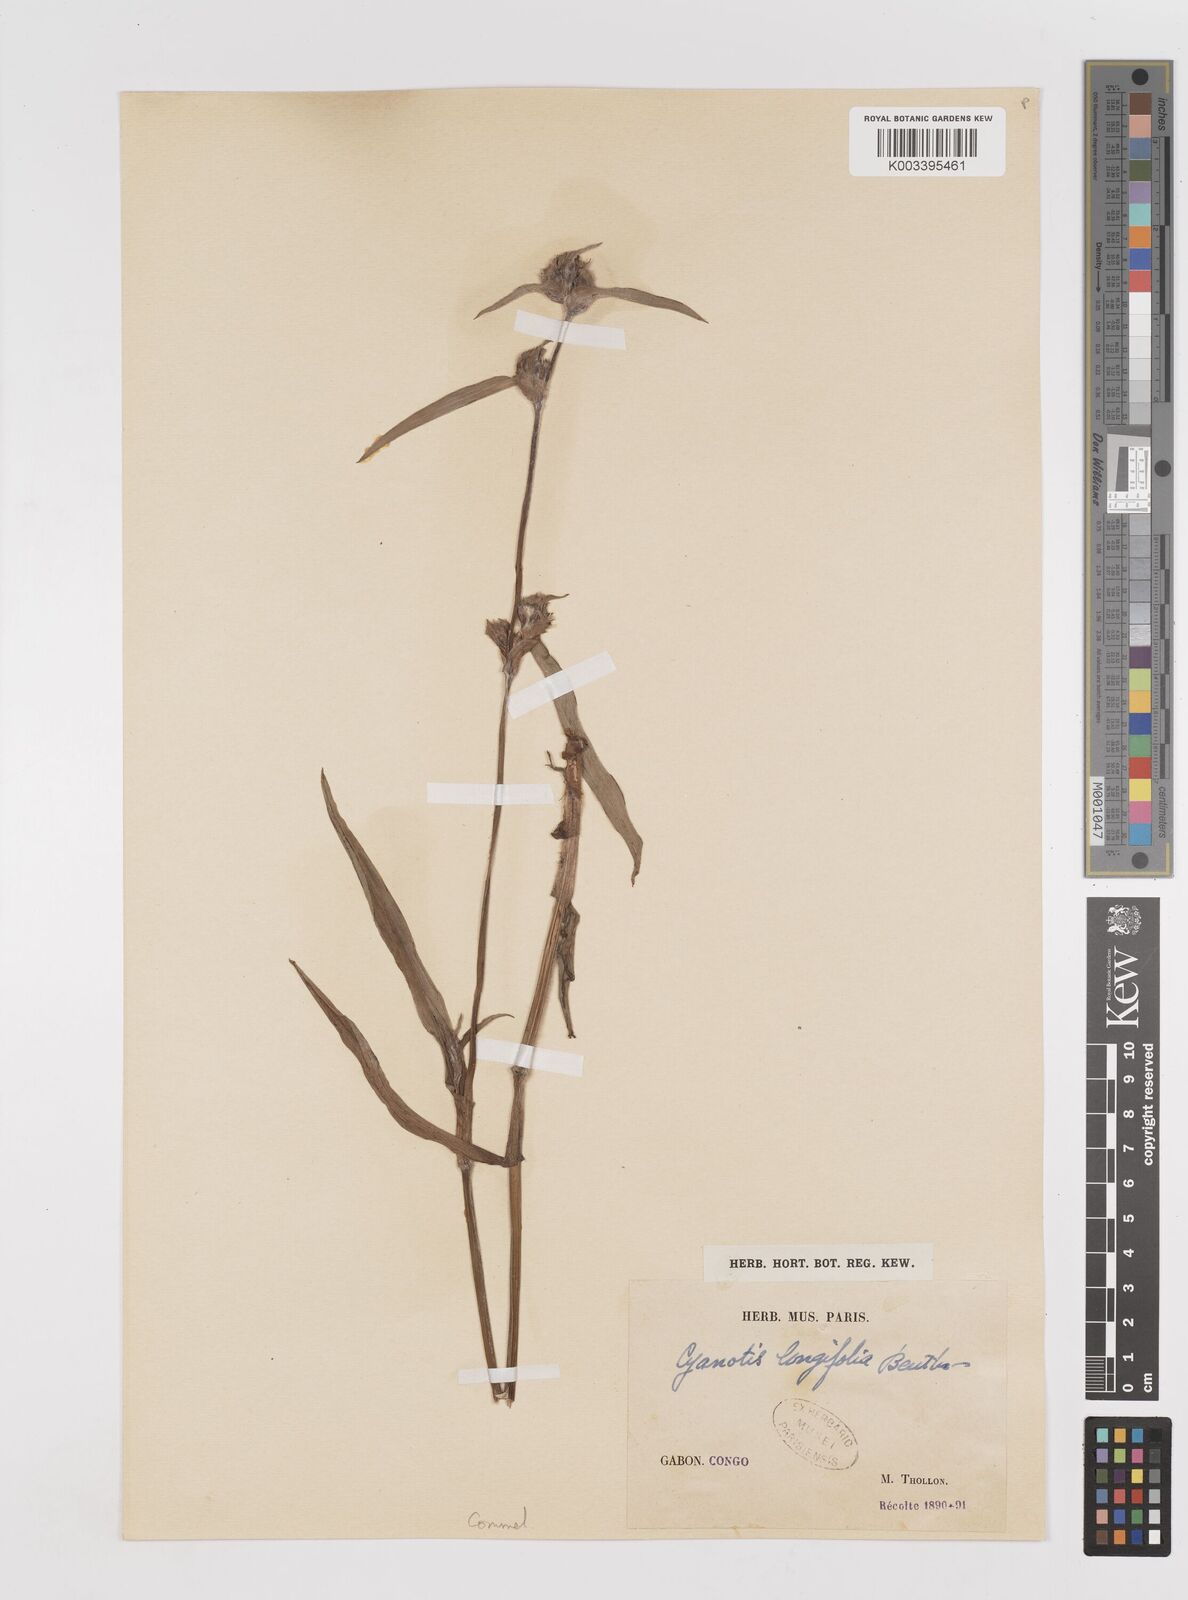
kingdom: Plantae
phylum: Tracheophyta
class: Liliopsida
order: Commelinales
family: Commelinaceae
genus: Cyanotis
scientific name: Cyanotis longifolia
